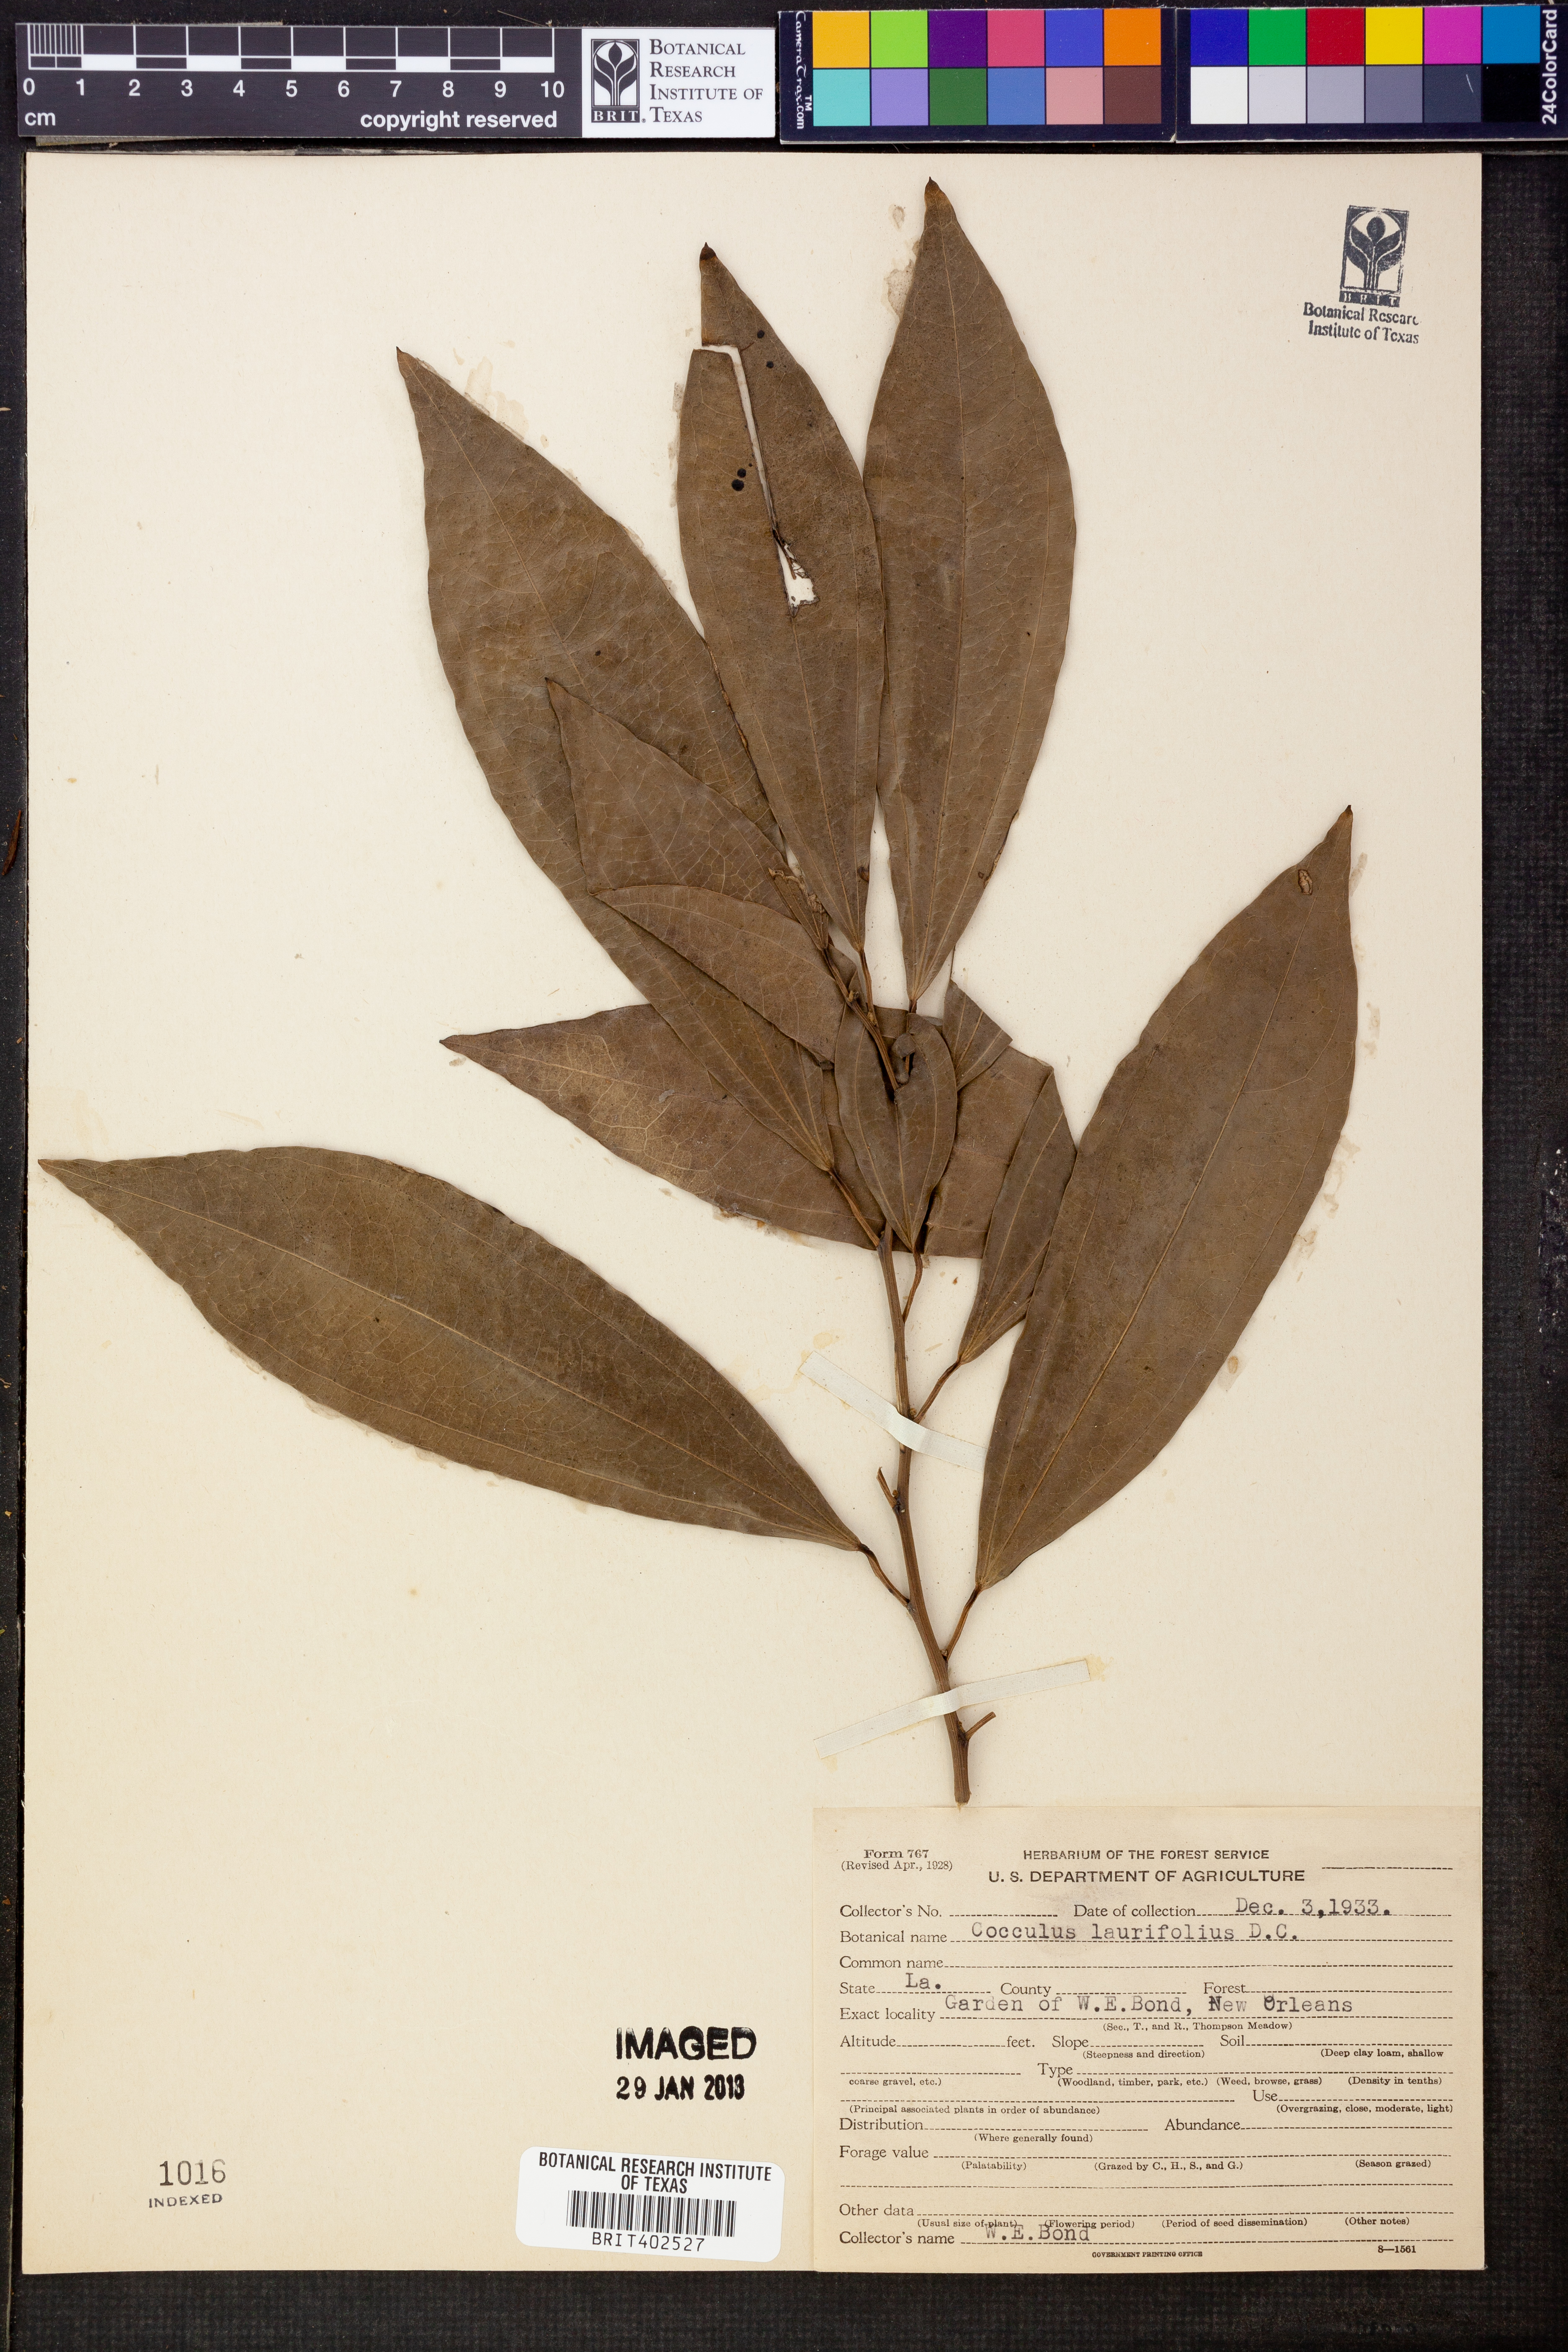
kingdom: Plantae
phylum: Tracheophyta
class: Magnoliopsida
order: Ranunculales
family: Menispermaceae
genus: Cocculus
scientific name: Cocculus laurifolius
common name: Laurel-leaf snailseed
